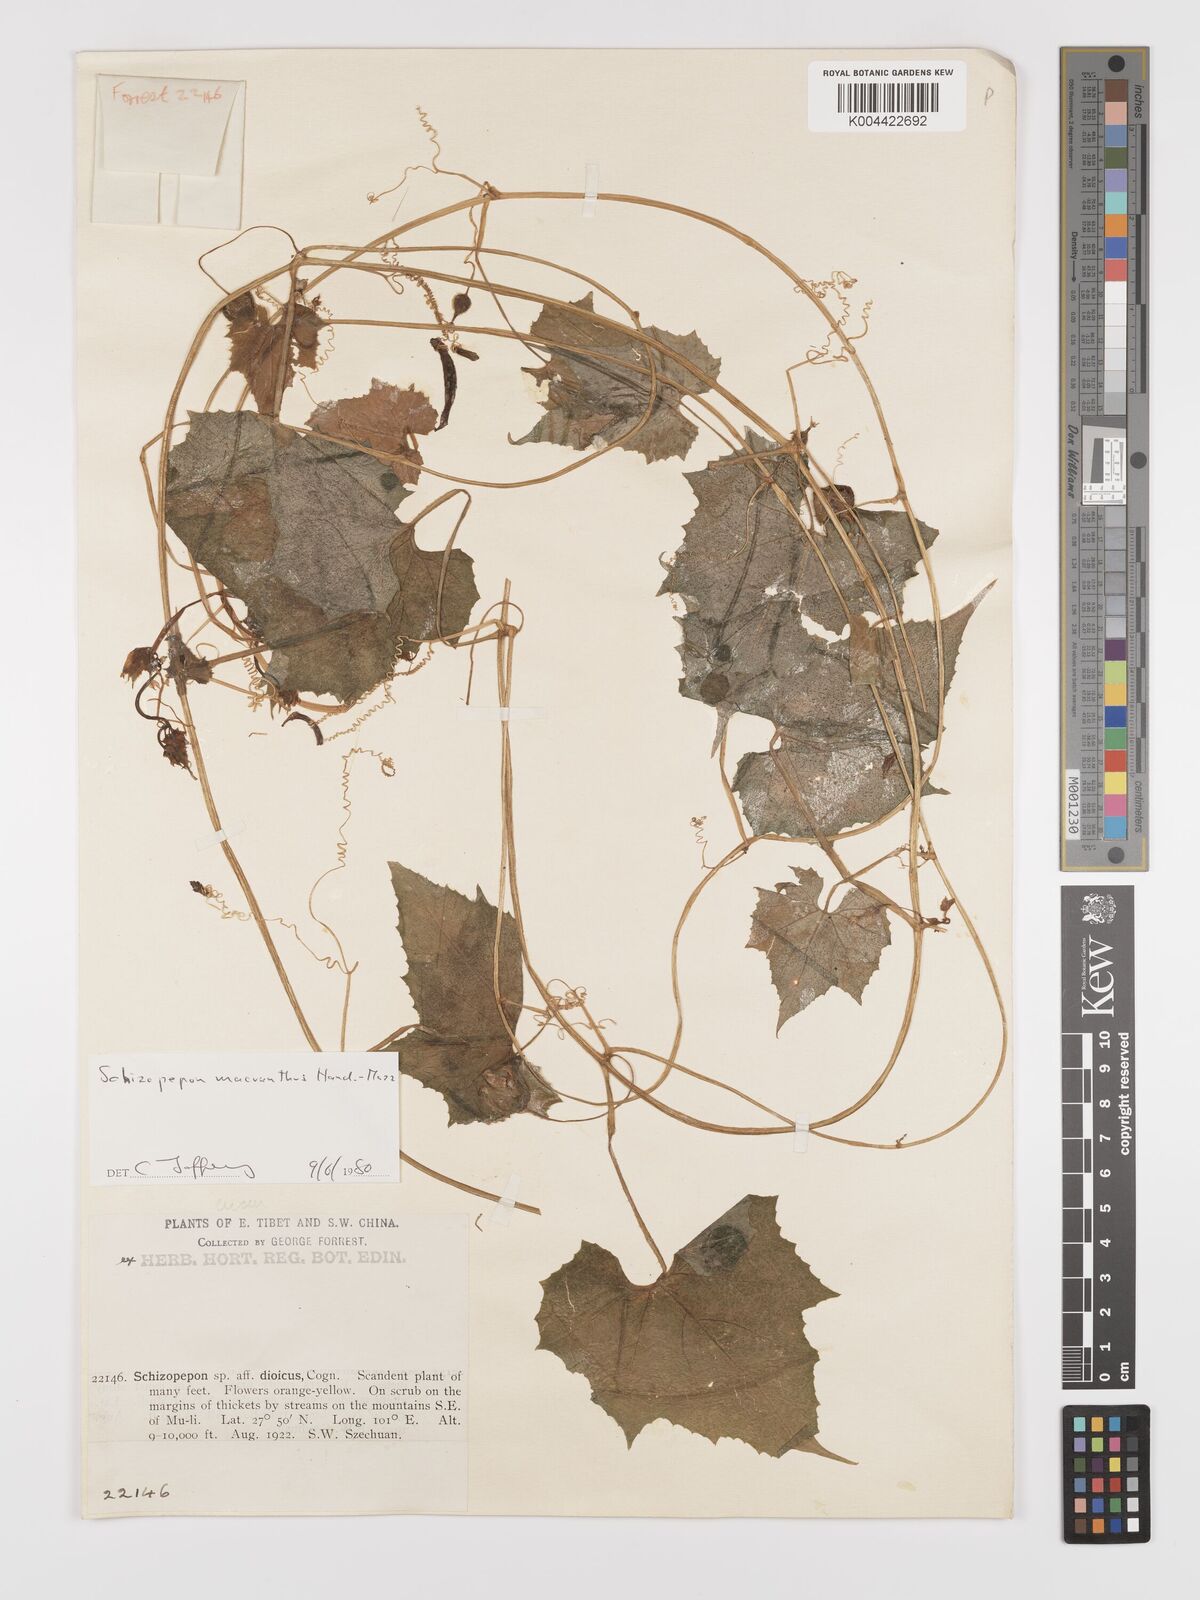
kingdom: Plantae
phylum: Tracheophyta
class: Magnoliopsida
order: Cucurbitales
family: Cucurbitaceae
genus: Schizopepon
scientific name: Schizopepon macranthus
